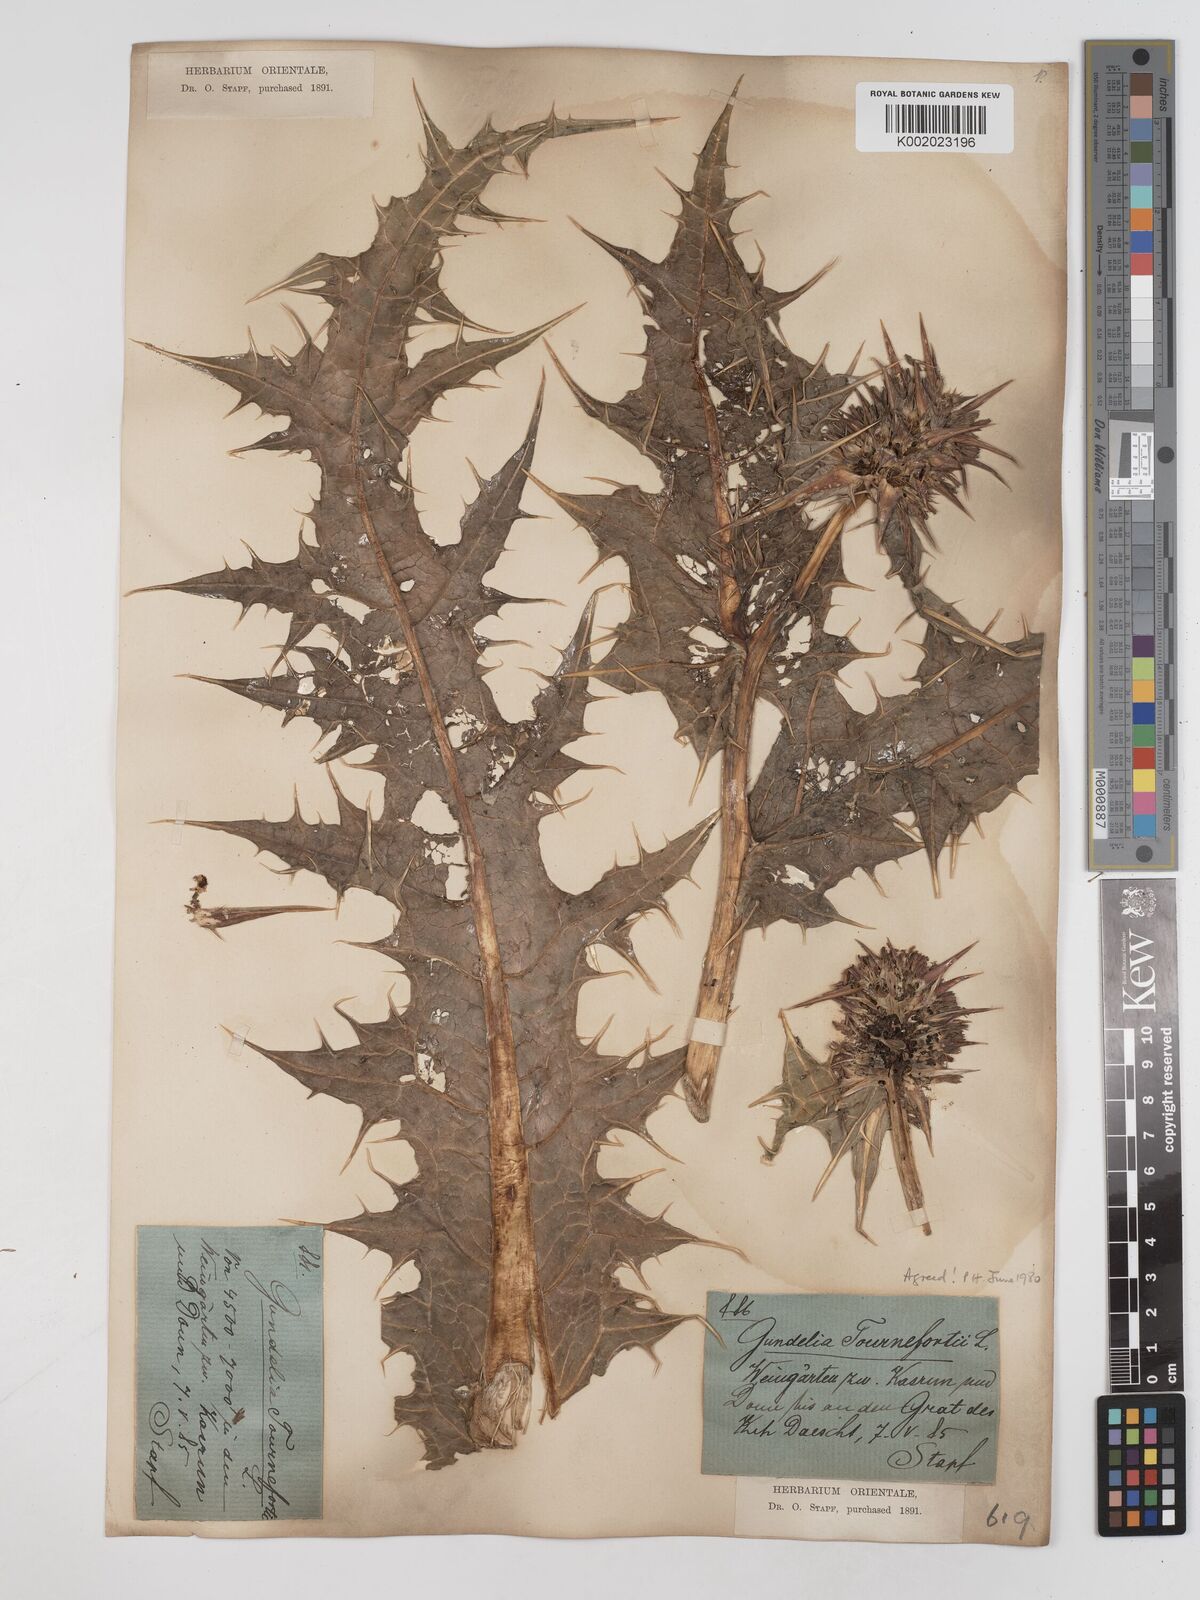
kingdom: Plantae
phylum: Tracheophyta
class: Magnoliopsida
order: Asterales
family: Asteraceae
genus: Gundelia
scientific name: Gundelia tournefortii
